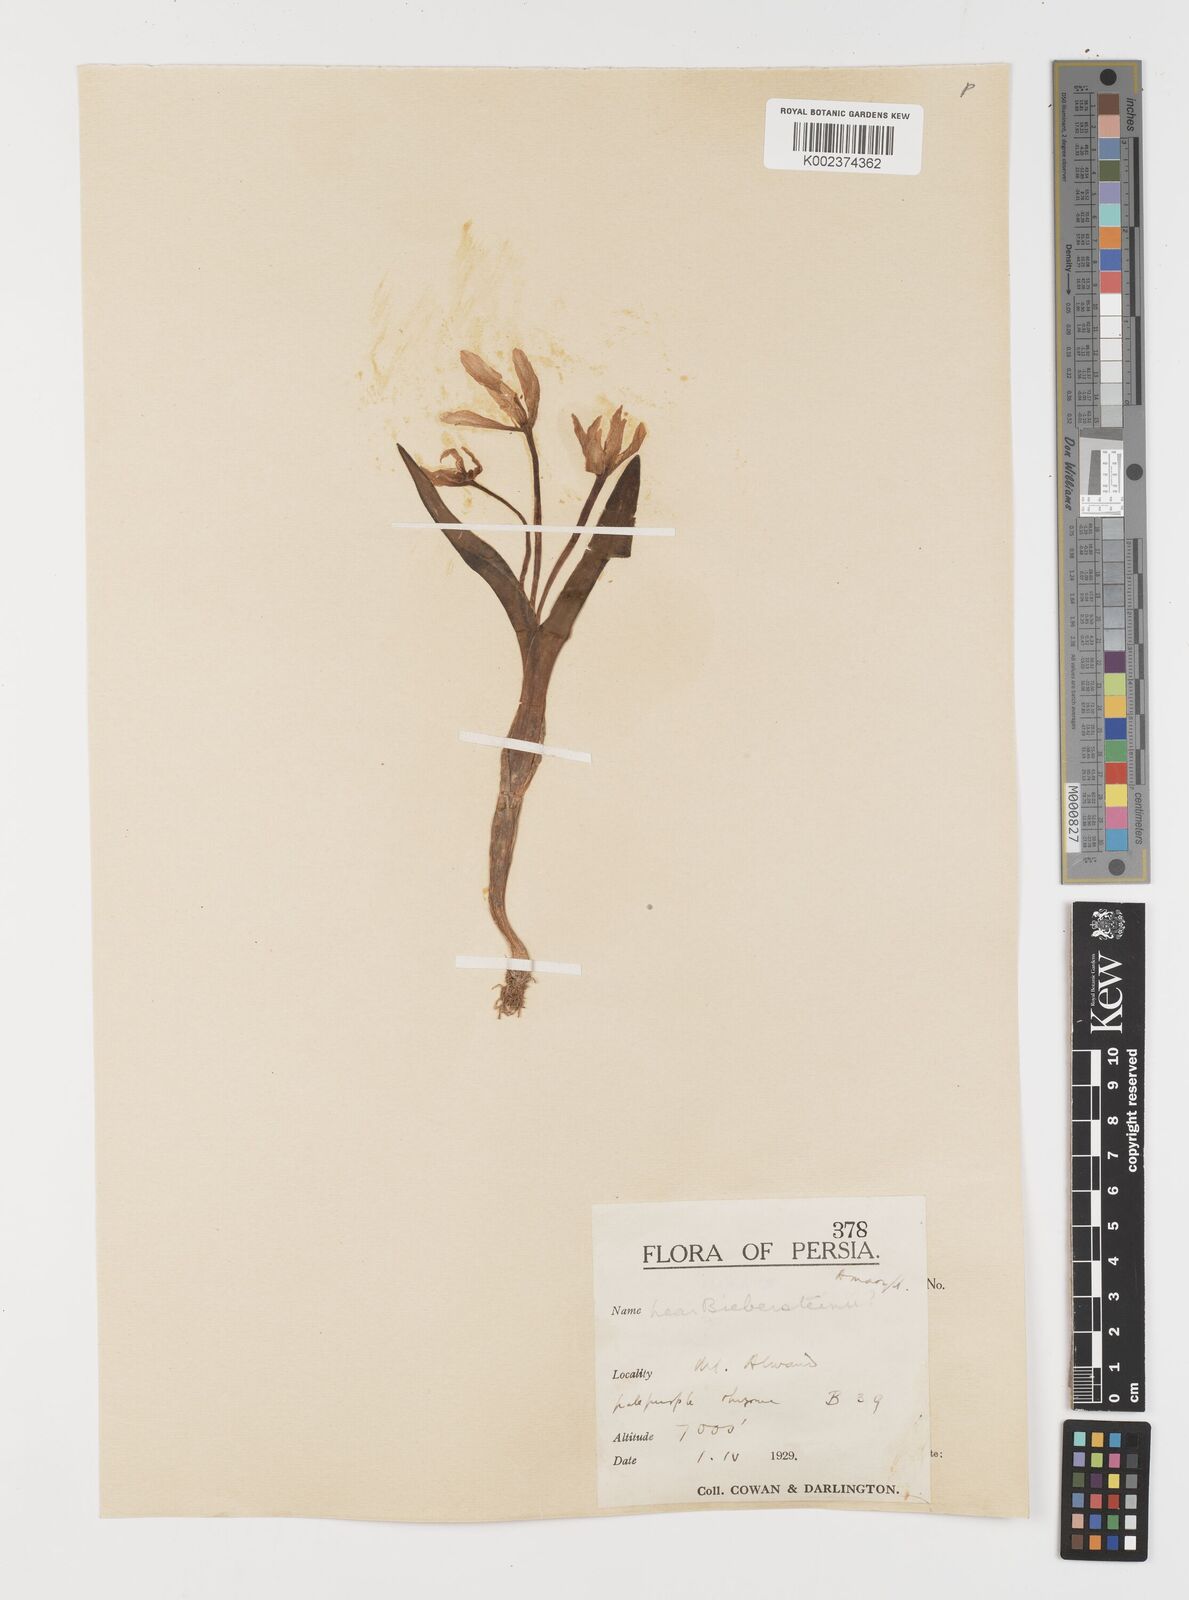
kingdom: Plantae
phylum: Tracheophyta
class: Liliopsida
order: Liliales
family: Colchicaceae
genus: Colchicum
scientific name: Colchicum
